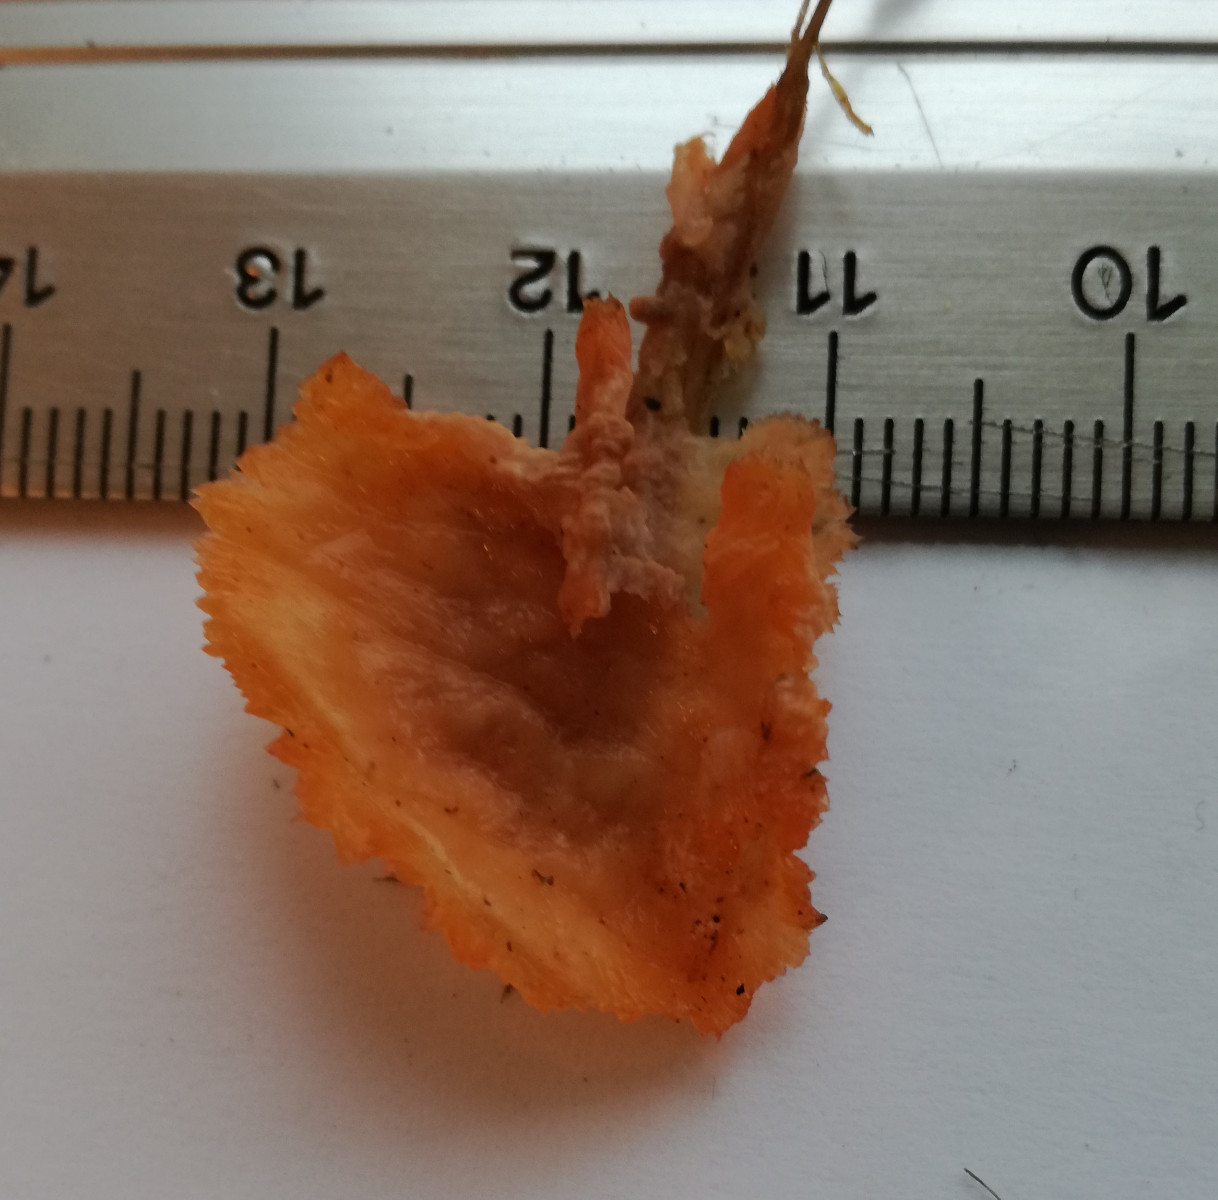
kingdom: Fungi
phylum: Basidiomycota
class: Agaricomycetes
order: Polyporales
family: Meruliaceae
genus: Phlebia
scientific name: Phlebia radiata
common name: stråle-åresvamp
